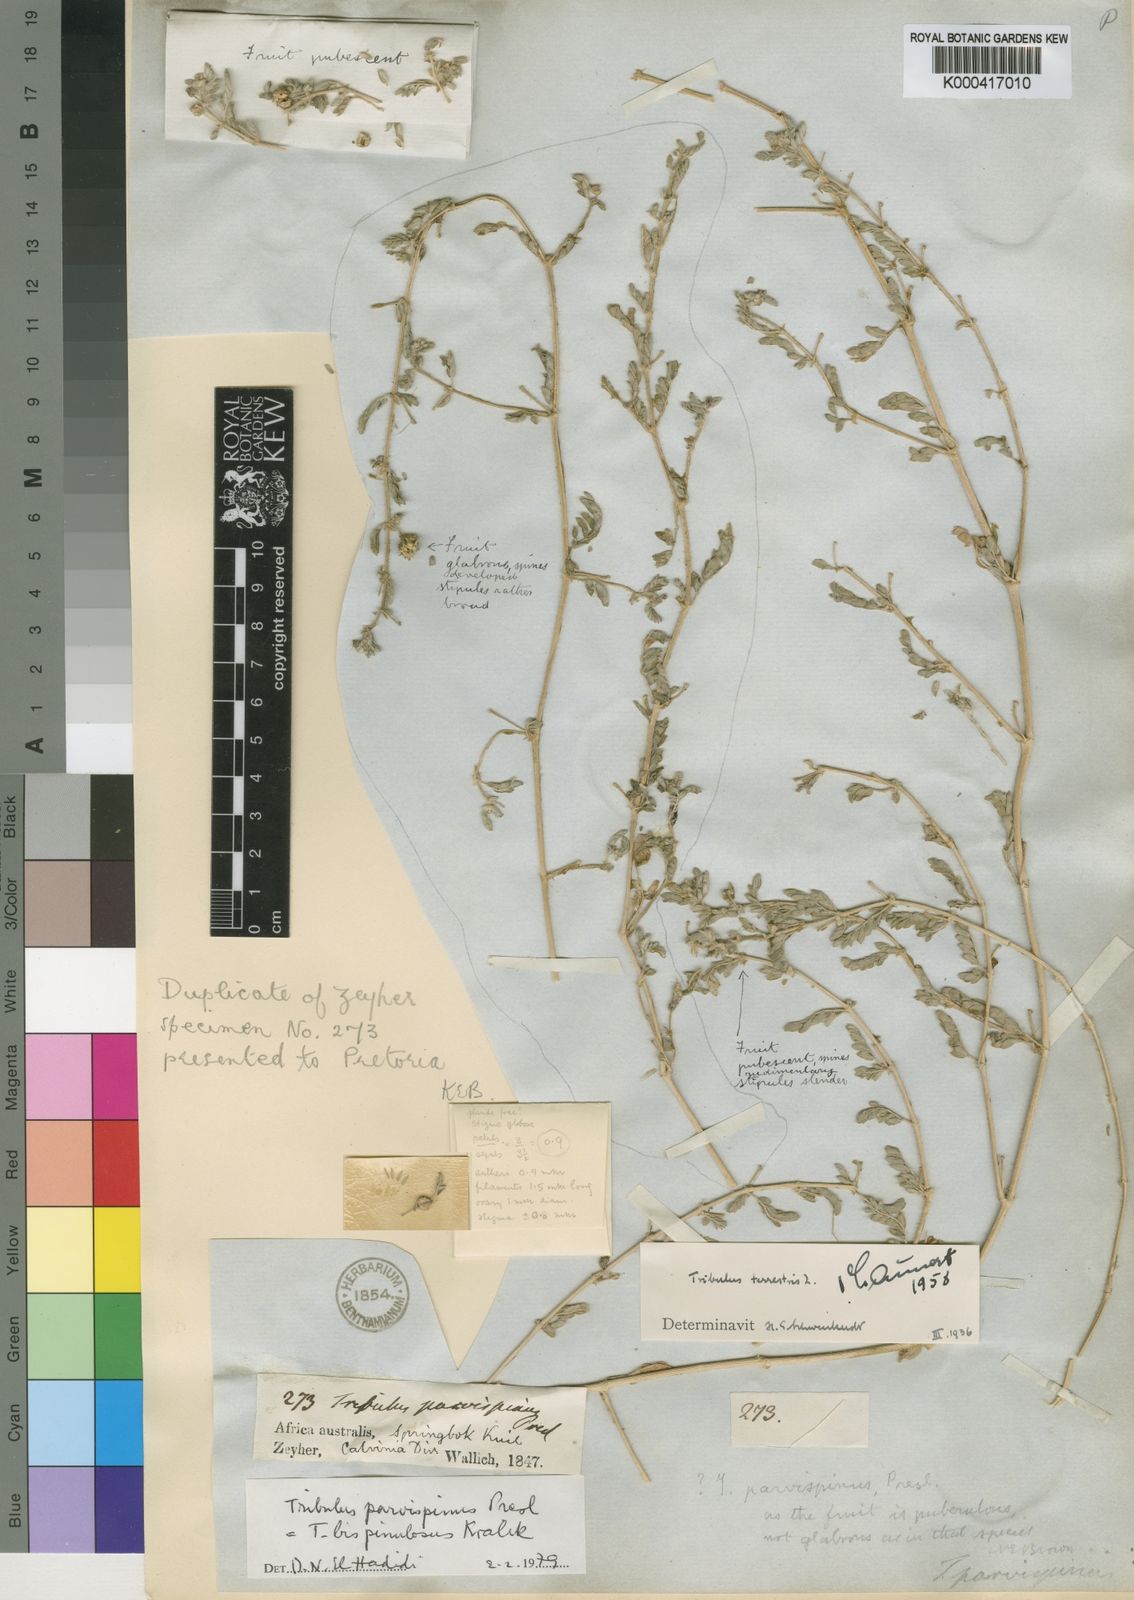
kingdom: Plantae
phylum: Tracheophyta
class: Magnoliopsida
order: Zygophyllales
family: Zygophyllaceae
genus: Tribulus
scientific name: Tribulus parvispinus
